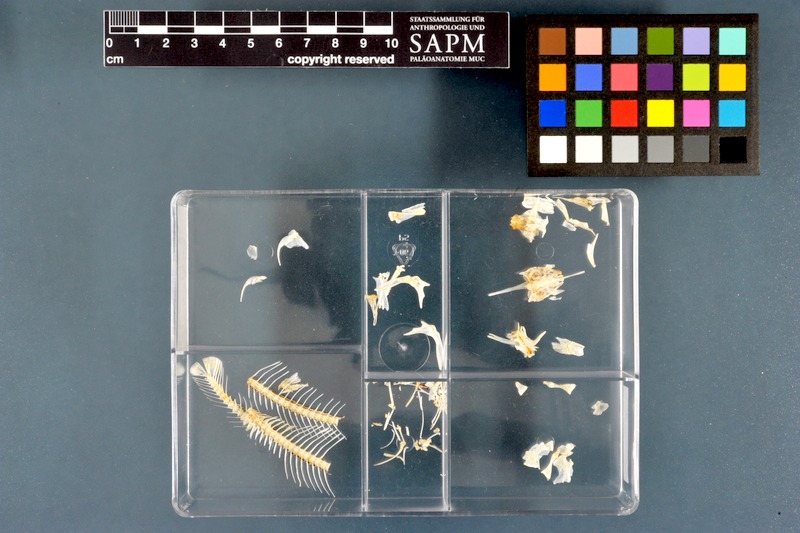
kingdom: Animalia
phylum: Chordata
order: Siluriformes
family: Schilbeidae
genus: Schilbe
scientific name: Schilbe mystus
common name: Silver catfish
